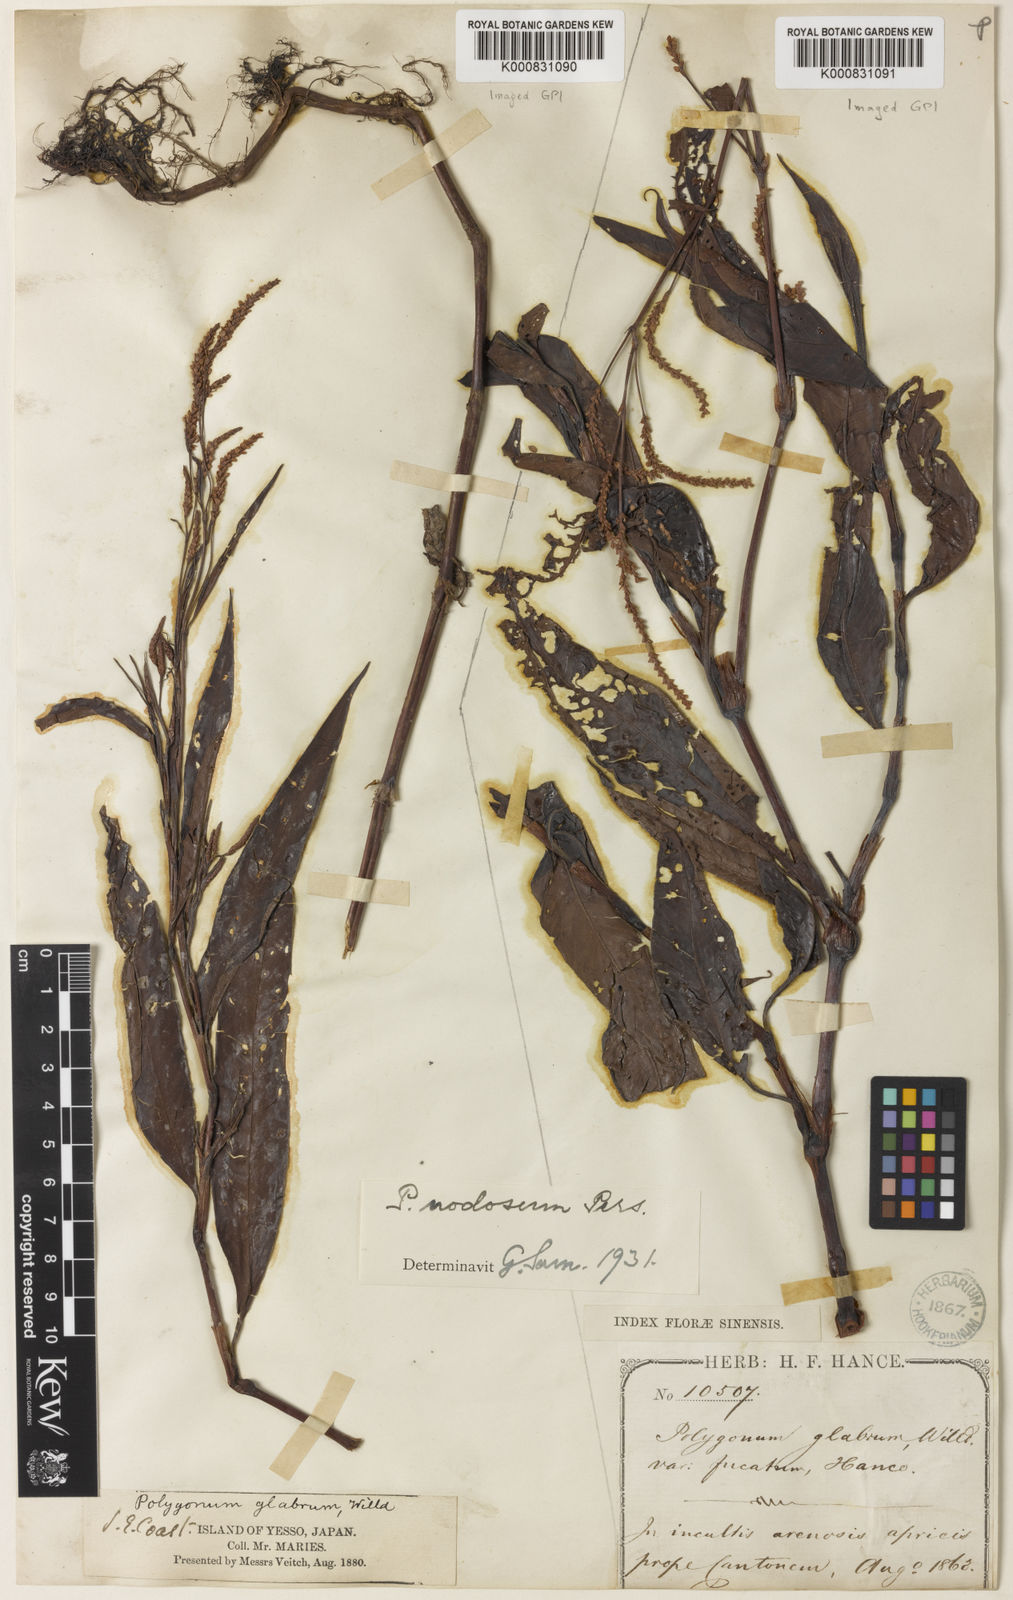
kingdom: Plantae
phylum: Tracheophyta
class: Magnoliopsida
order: Caryophyllales
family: Polygonaceae
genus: Persicaria
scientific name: Persicaria
